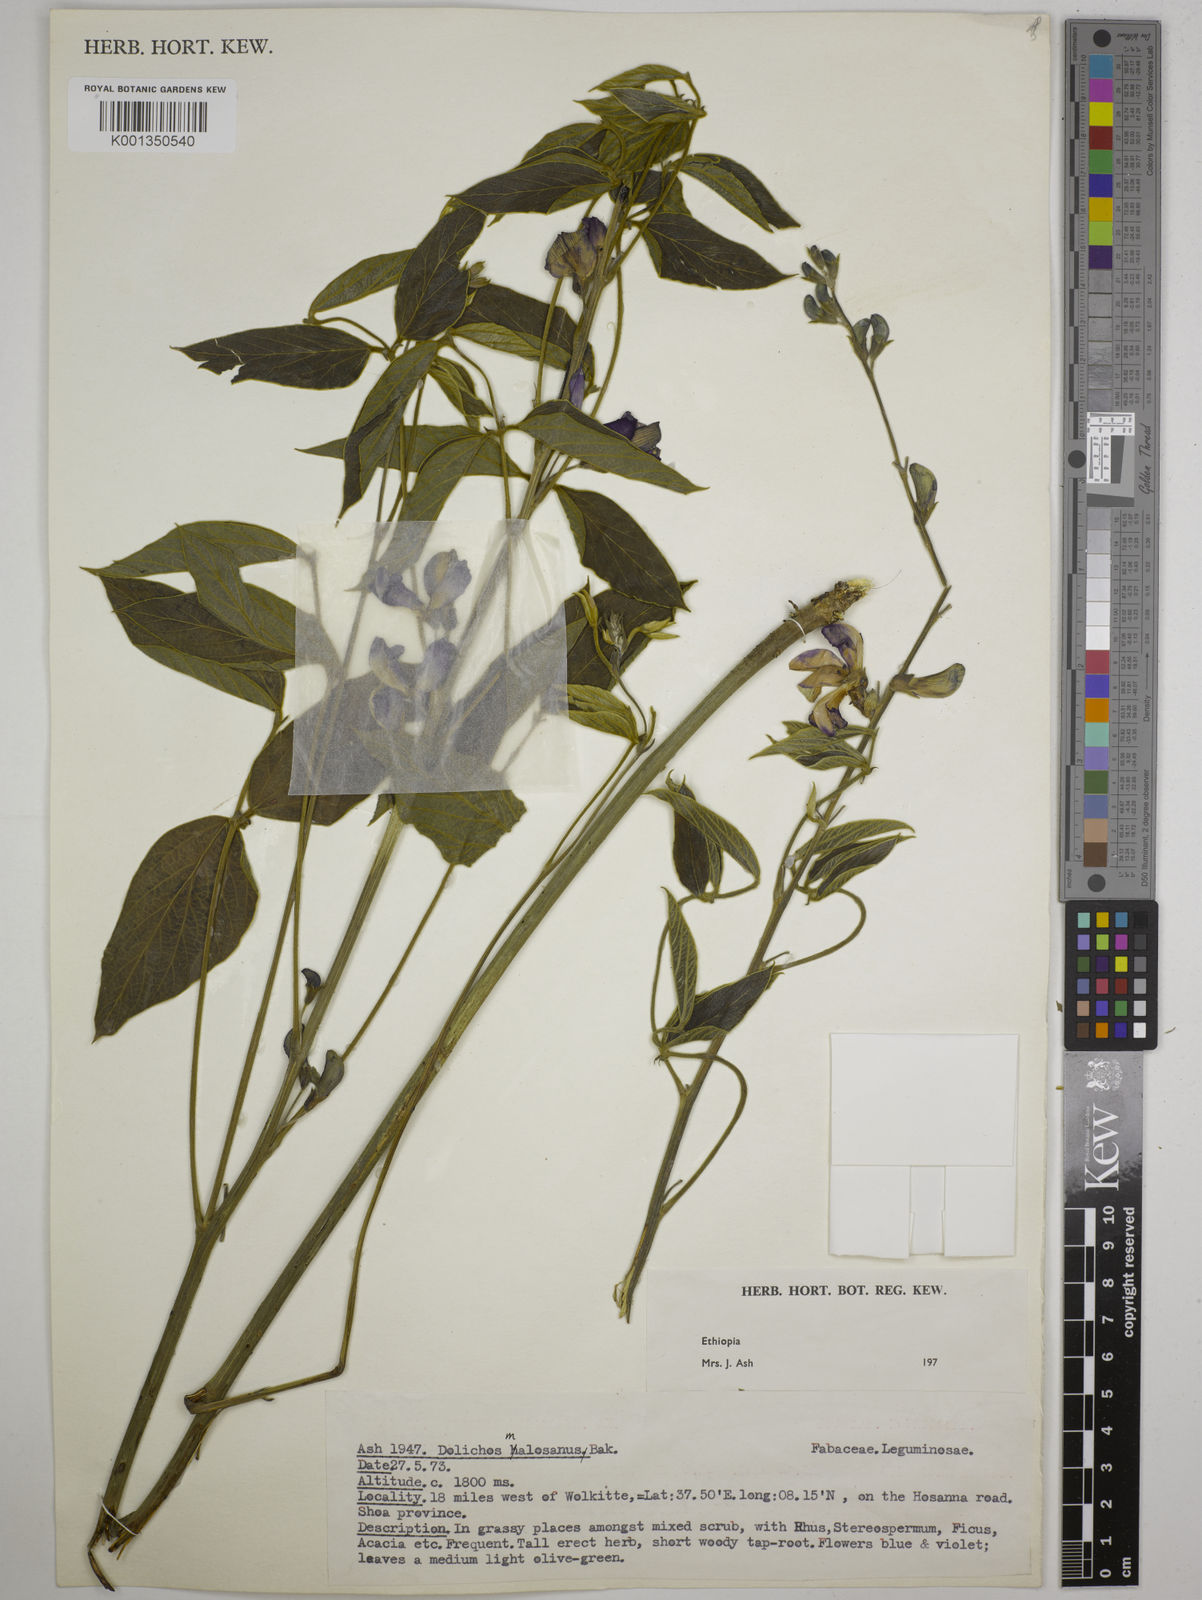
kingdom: Plantae
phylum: Tracheophyta
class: Magnoliopsida
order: Fabales
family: Fabaceae
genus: Dolichos
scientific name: Dolichos kilimandscharicus
